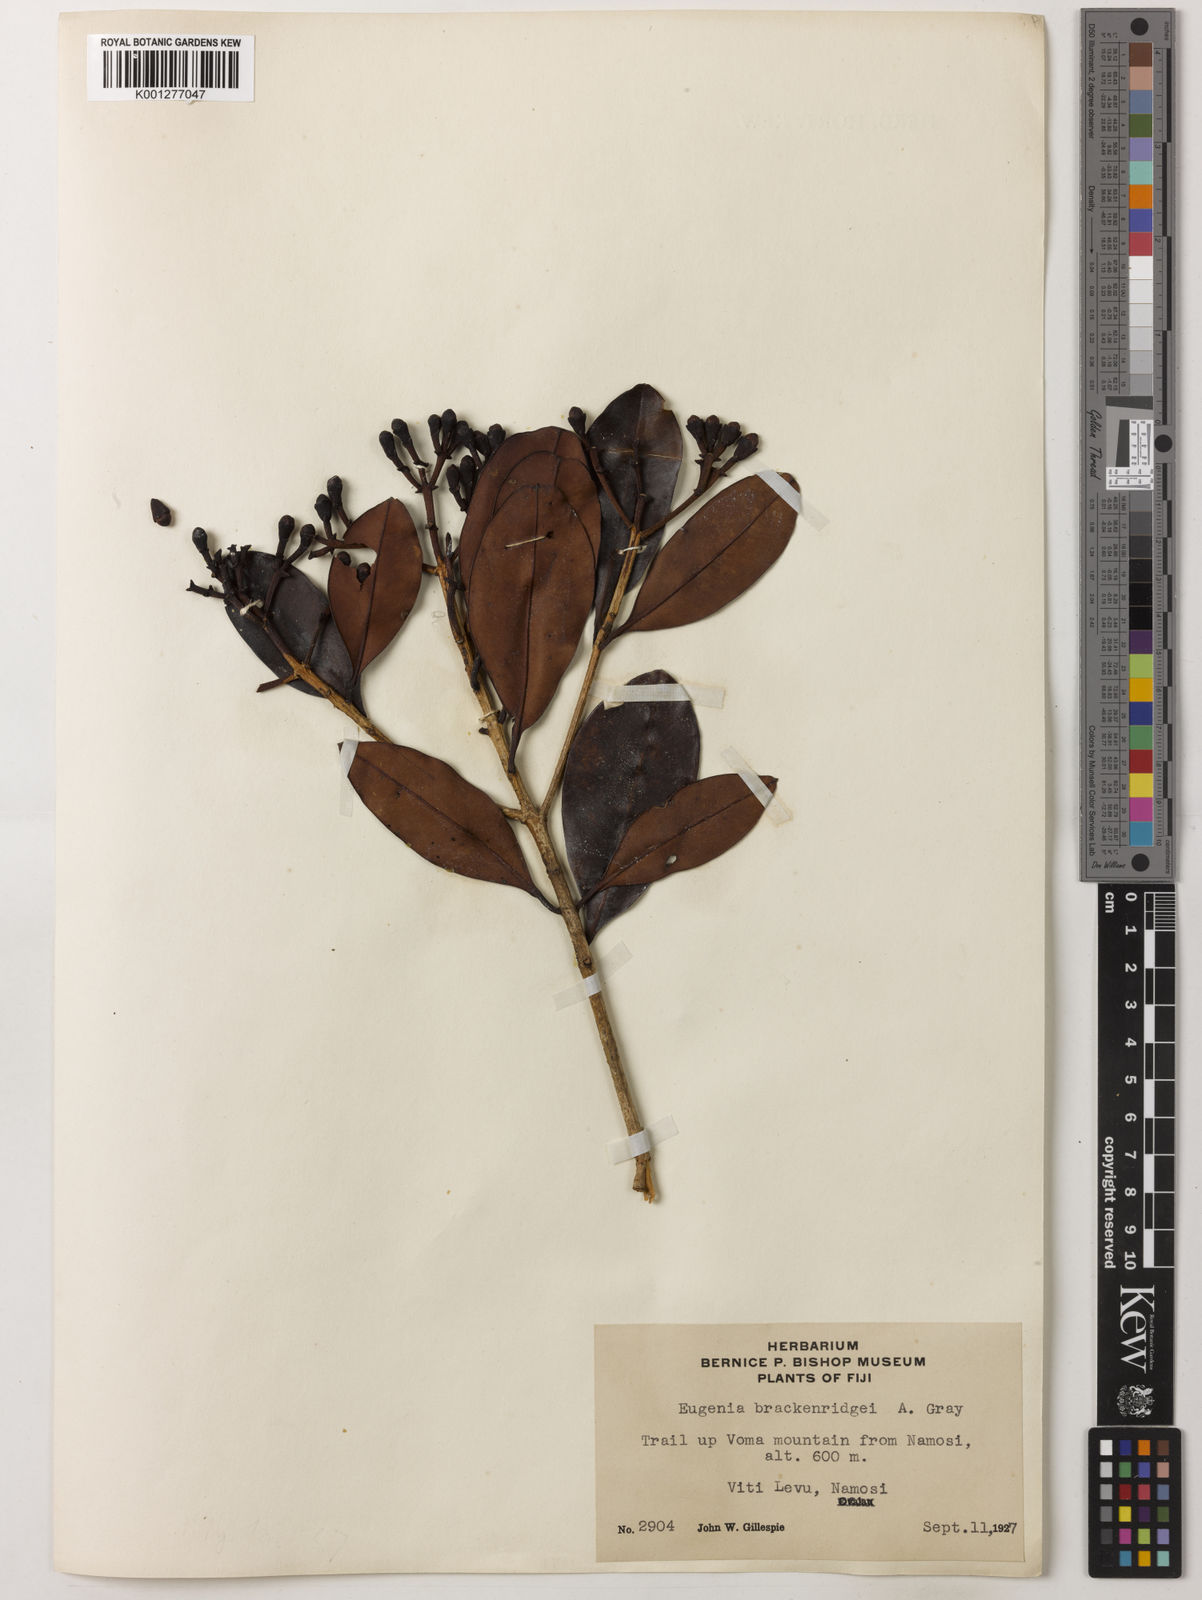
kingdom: Plantae
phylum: Tracheophyta
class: Magnoliopsida
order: Myrtales
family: Myrtaceae
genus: Syzygium
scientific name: Syzygium
